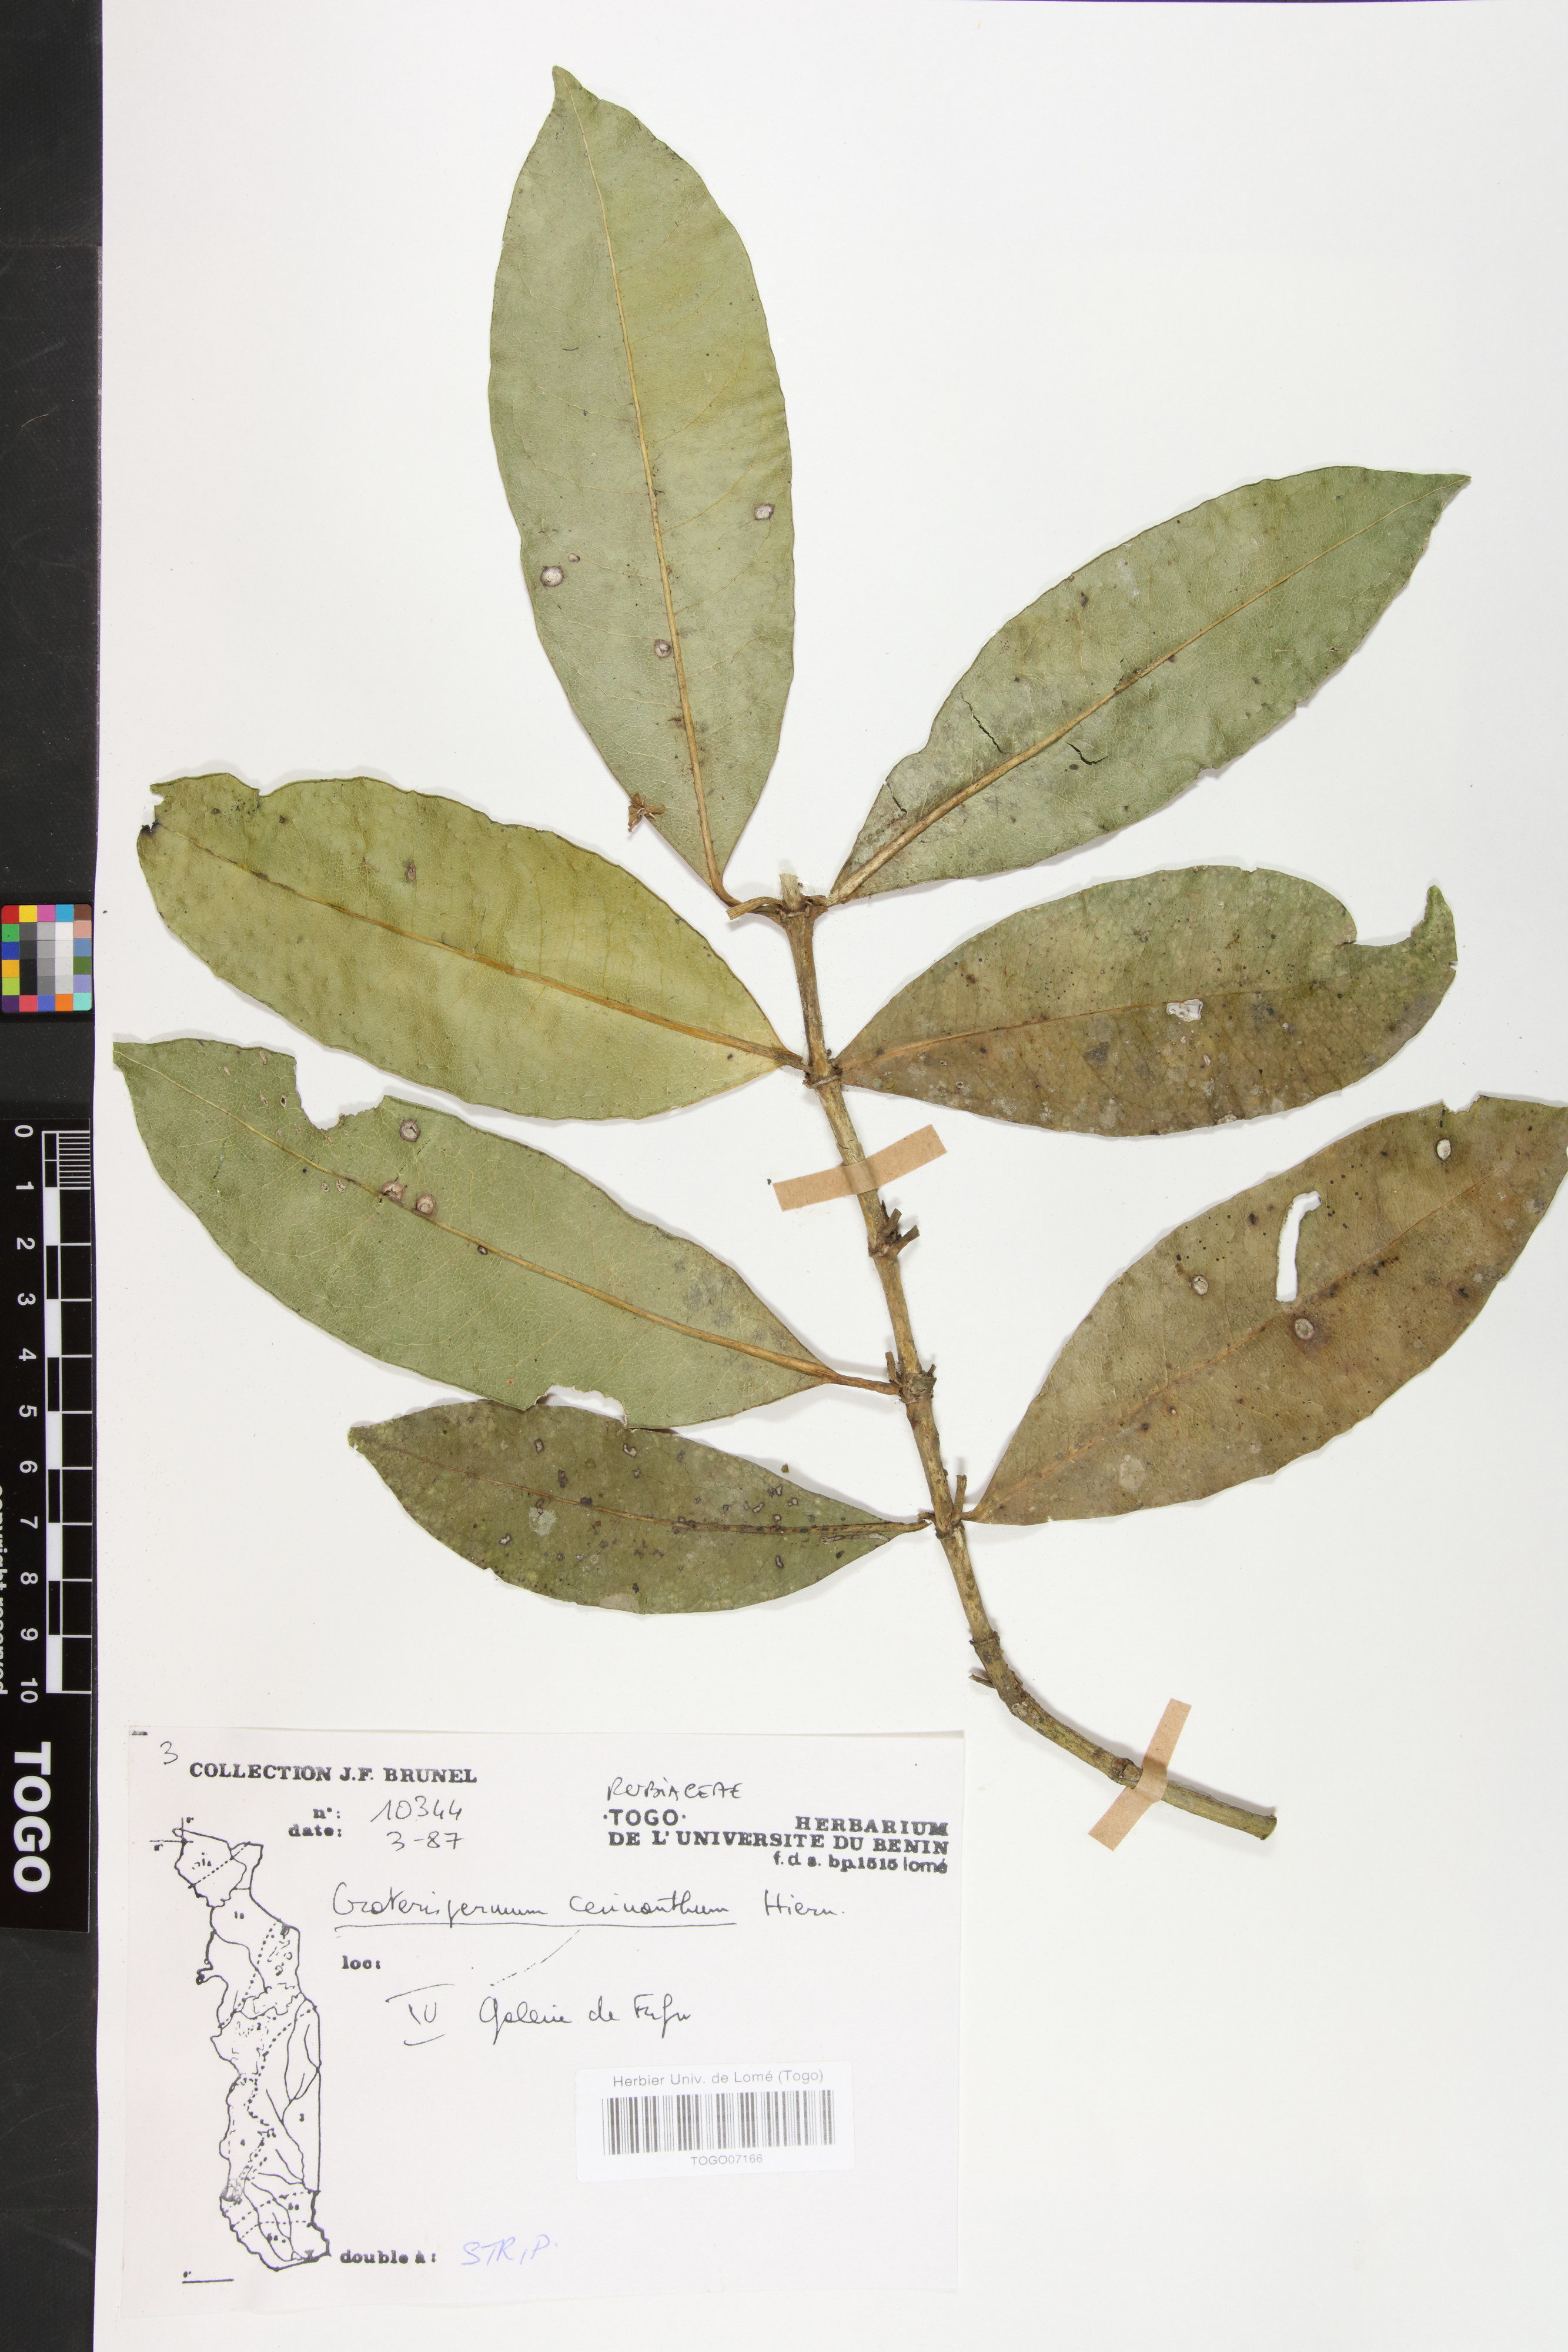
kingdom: Plantae
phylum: Tracheophyta
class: Magnoliopsida
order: Gentianales
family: Rubiaceae
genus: Craterispermum
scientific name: Craterispermum cerinanthum
